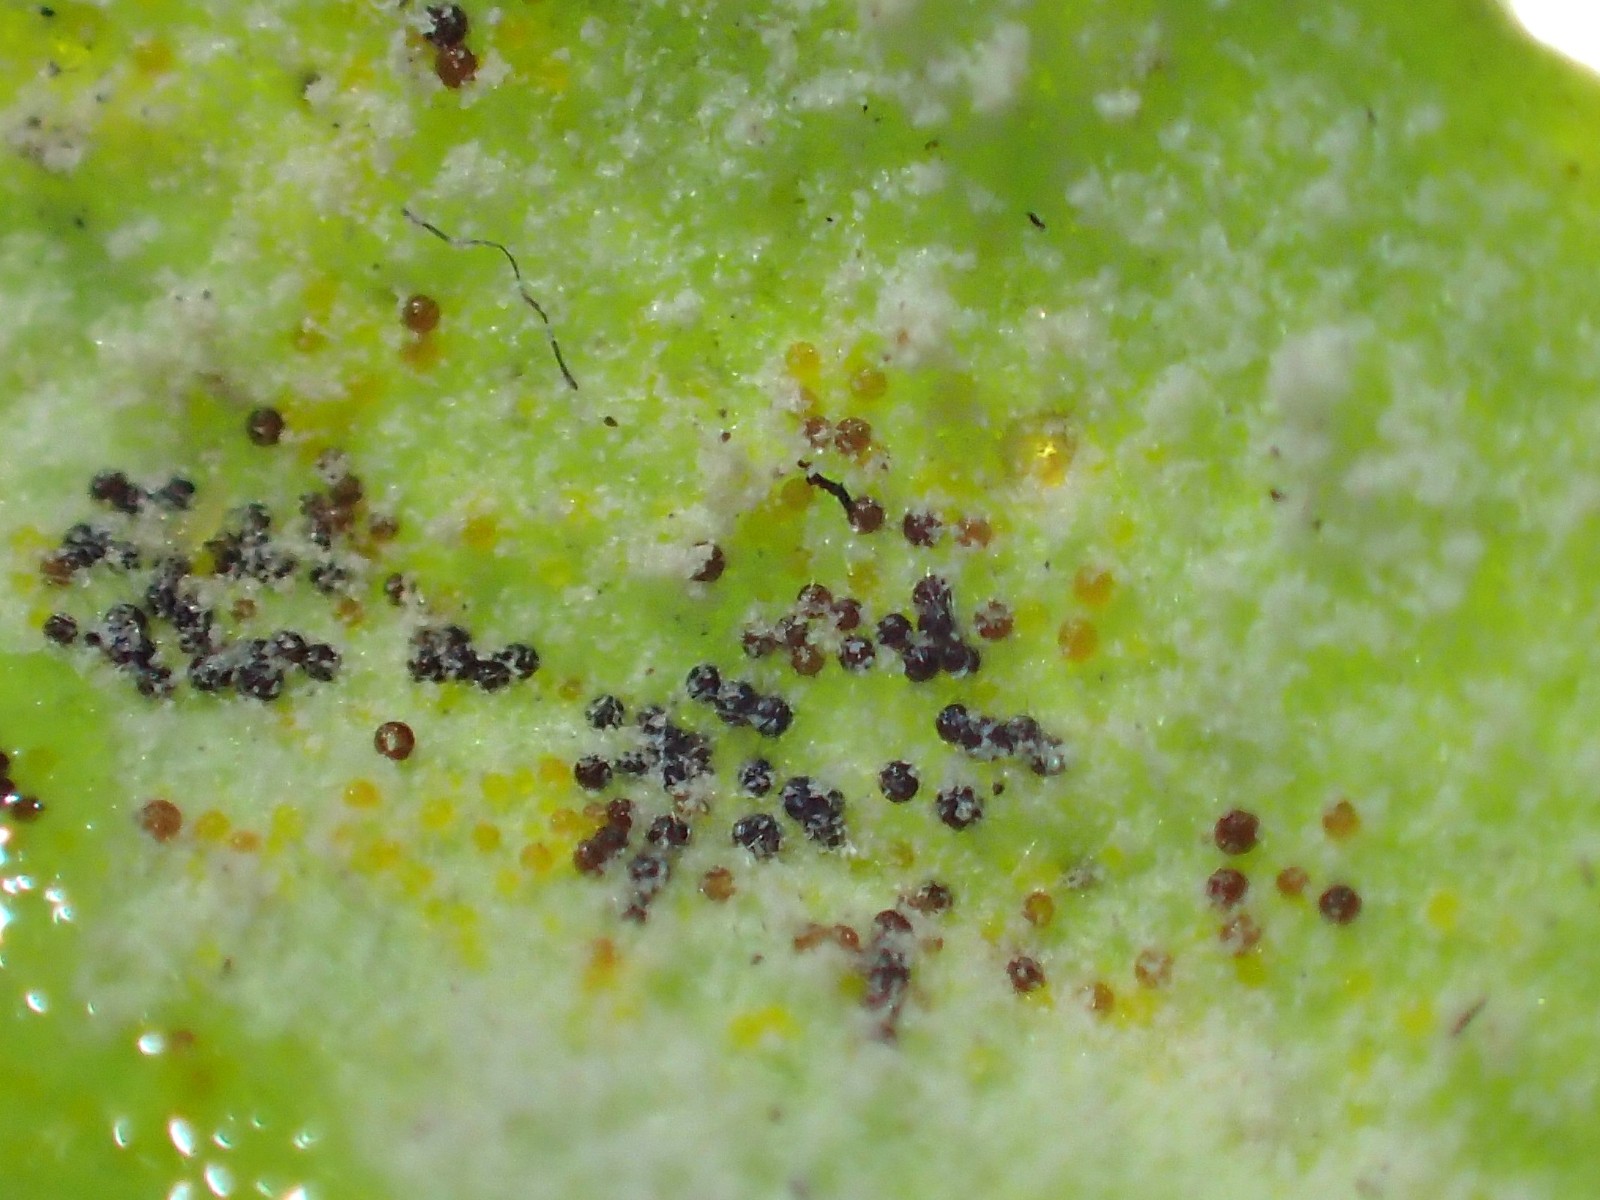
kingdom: Fungi
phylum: Ascomycota
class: Leotiomycetes
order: Helotiales
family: Erysiphaceae
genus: Erysiphe
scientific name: Erysiphe
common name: meldug
